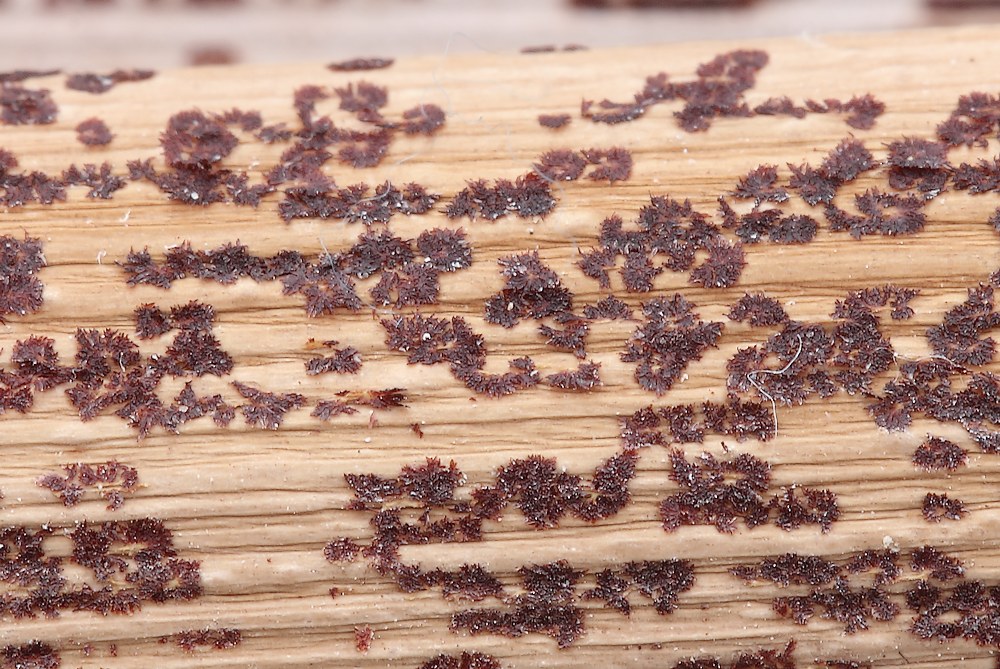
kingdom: Fungi
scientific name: Fungi
